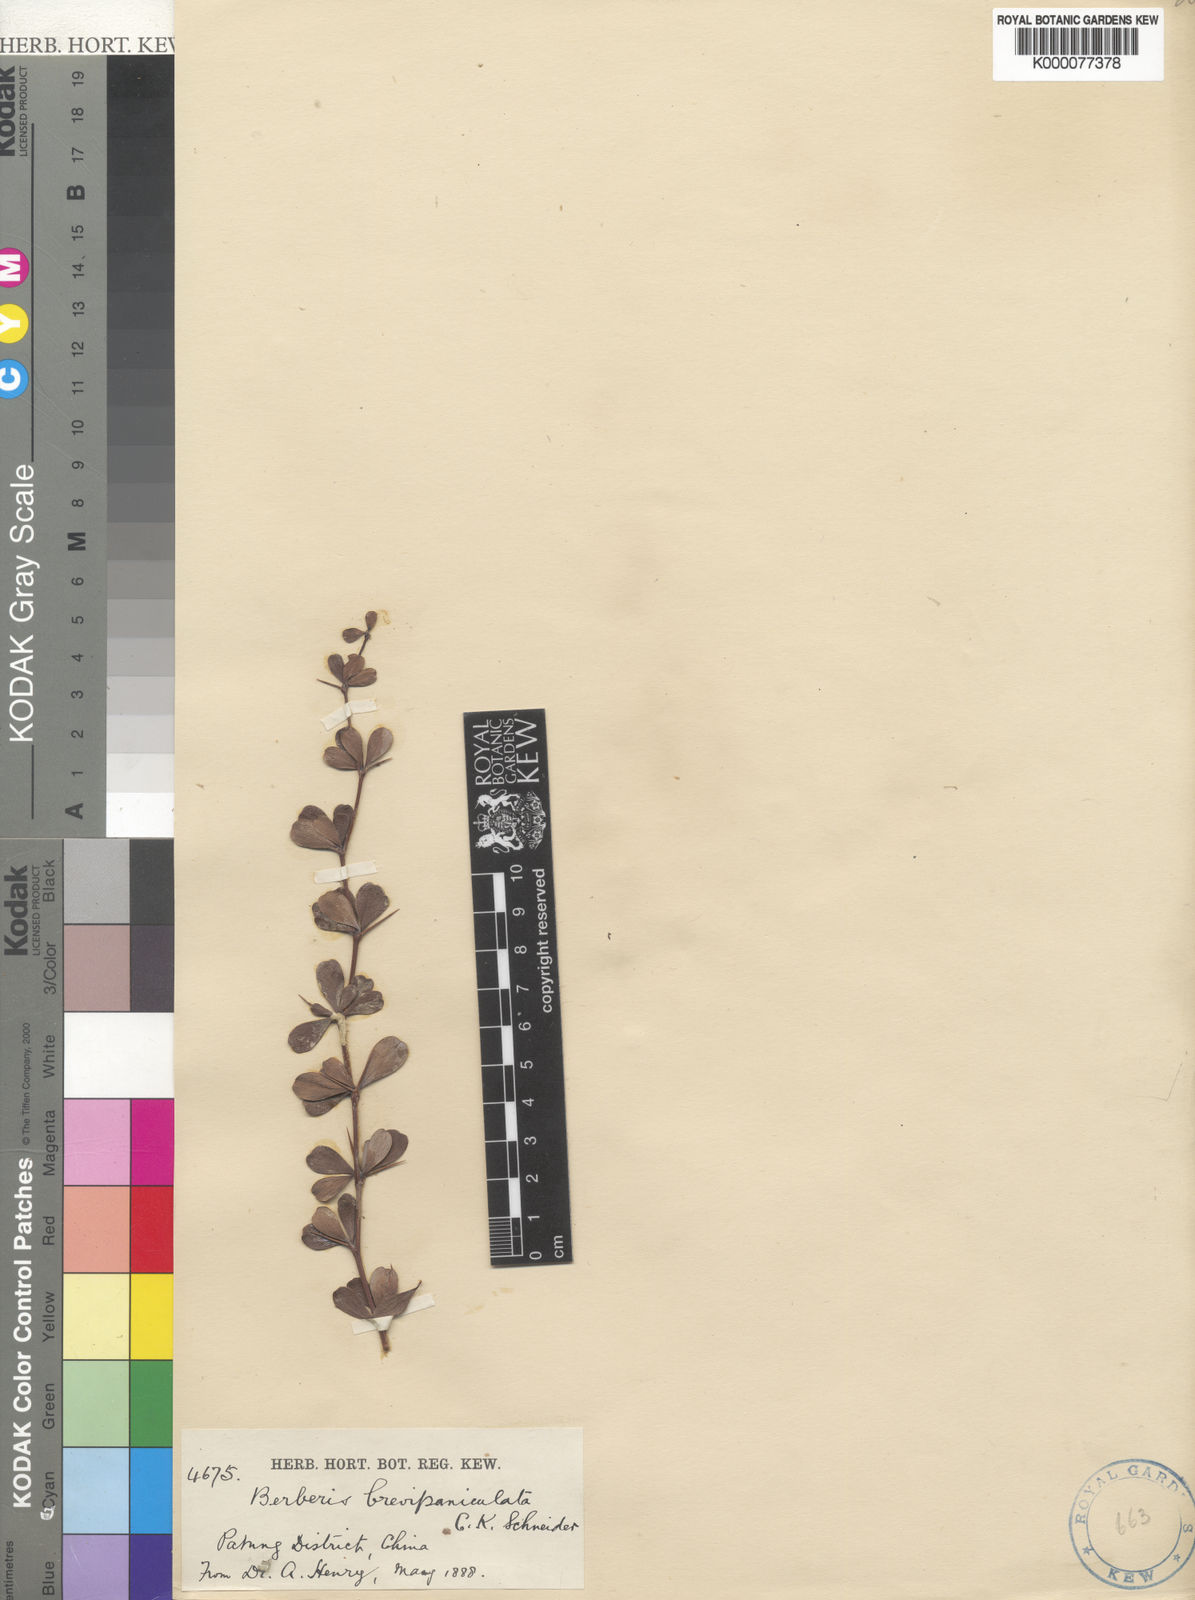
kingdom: Plantae
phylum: Tracheophyta
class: Magnoliopsida
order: Ranunculales
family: Berberidaceae
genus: Berberis
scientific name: Berberis brevipaniculata
